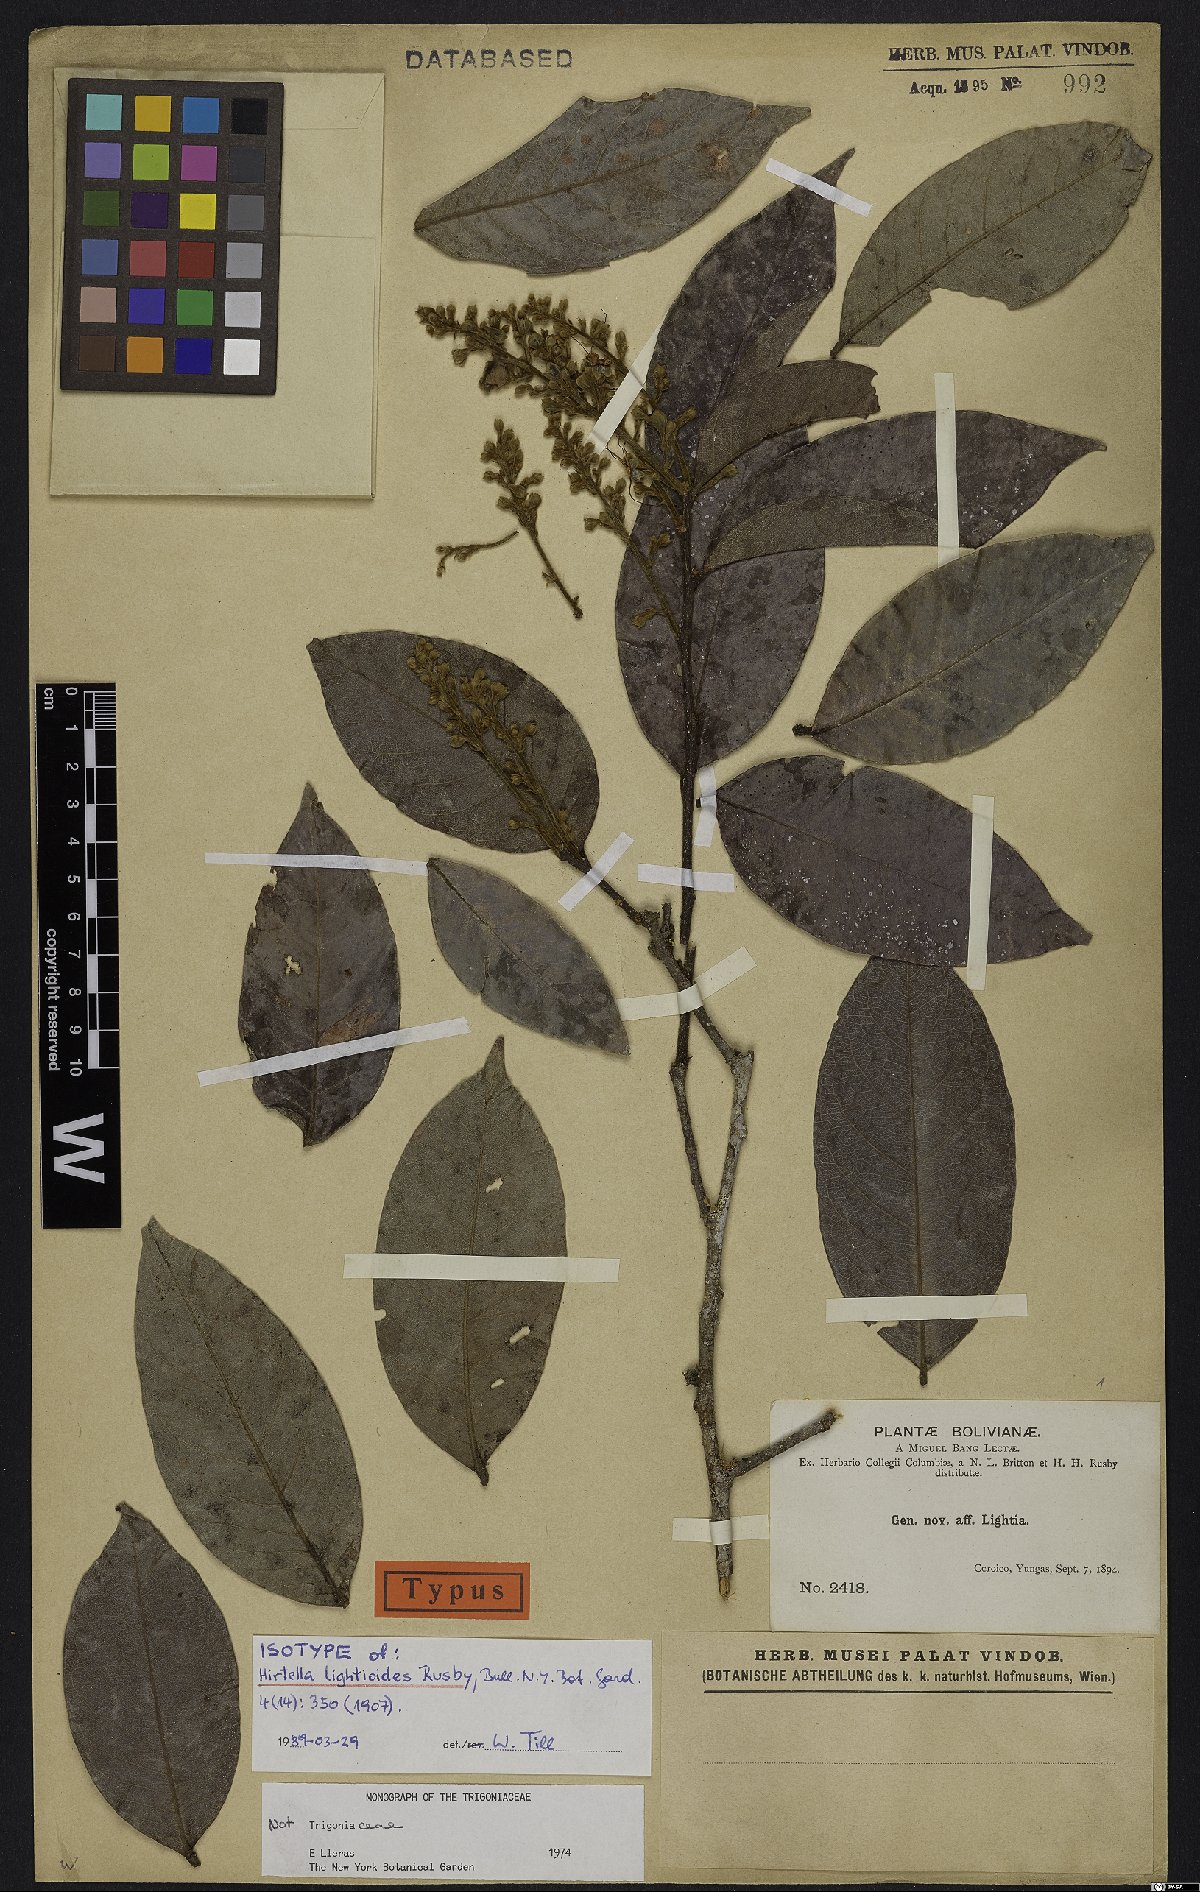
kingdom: Plantae
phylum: Tracheophyta
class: Magnoliopsida
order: Malpighiales
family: Chrysobalanaceae
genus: Hirtella
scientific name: Hirtella lightioides
